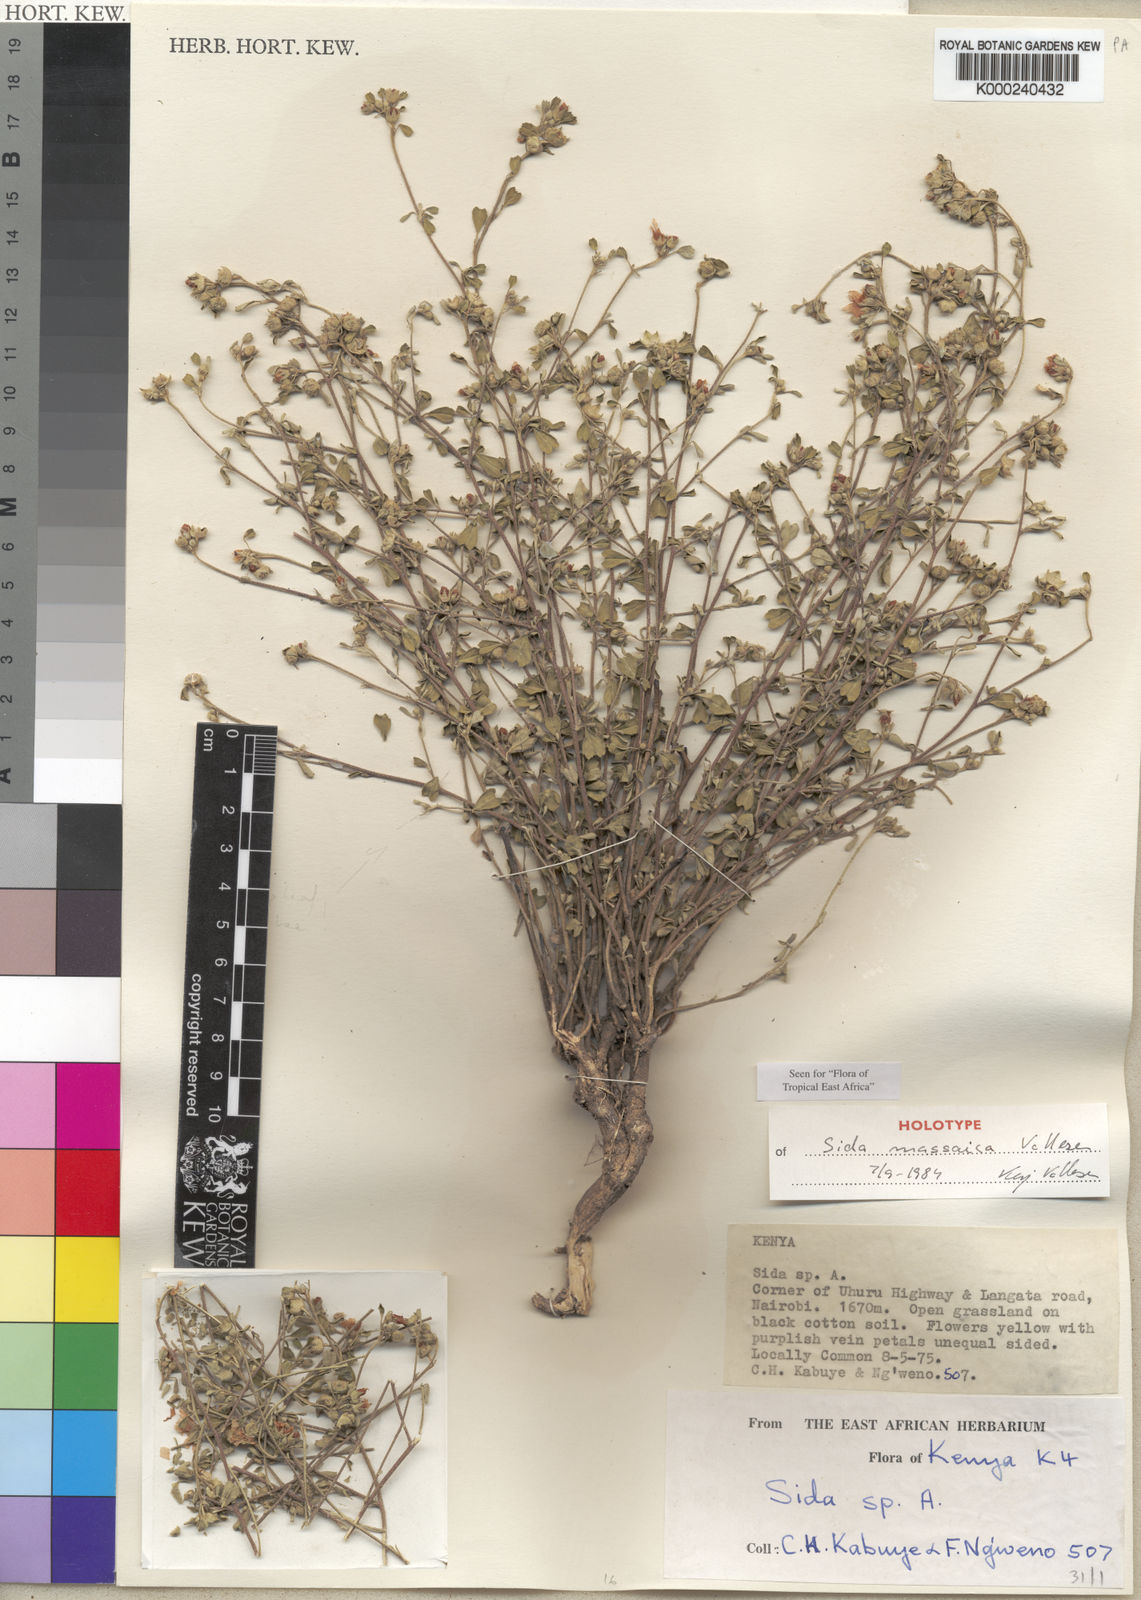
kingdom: Plantae
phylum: Tracheophyta
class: Magnoliopsida
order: Malvales
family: Malvaceae
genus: Sida
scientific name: Sida massaica
